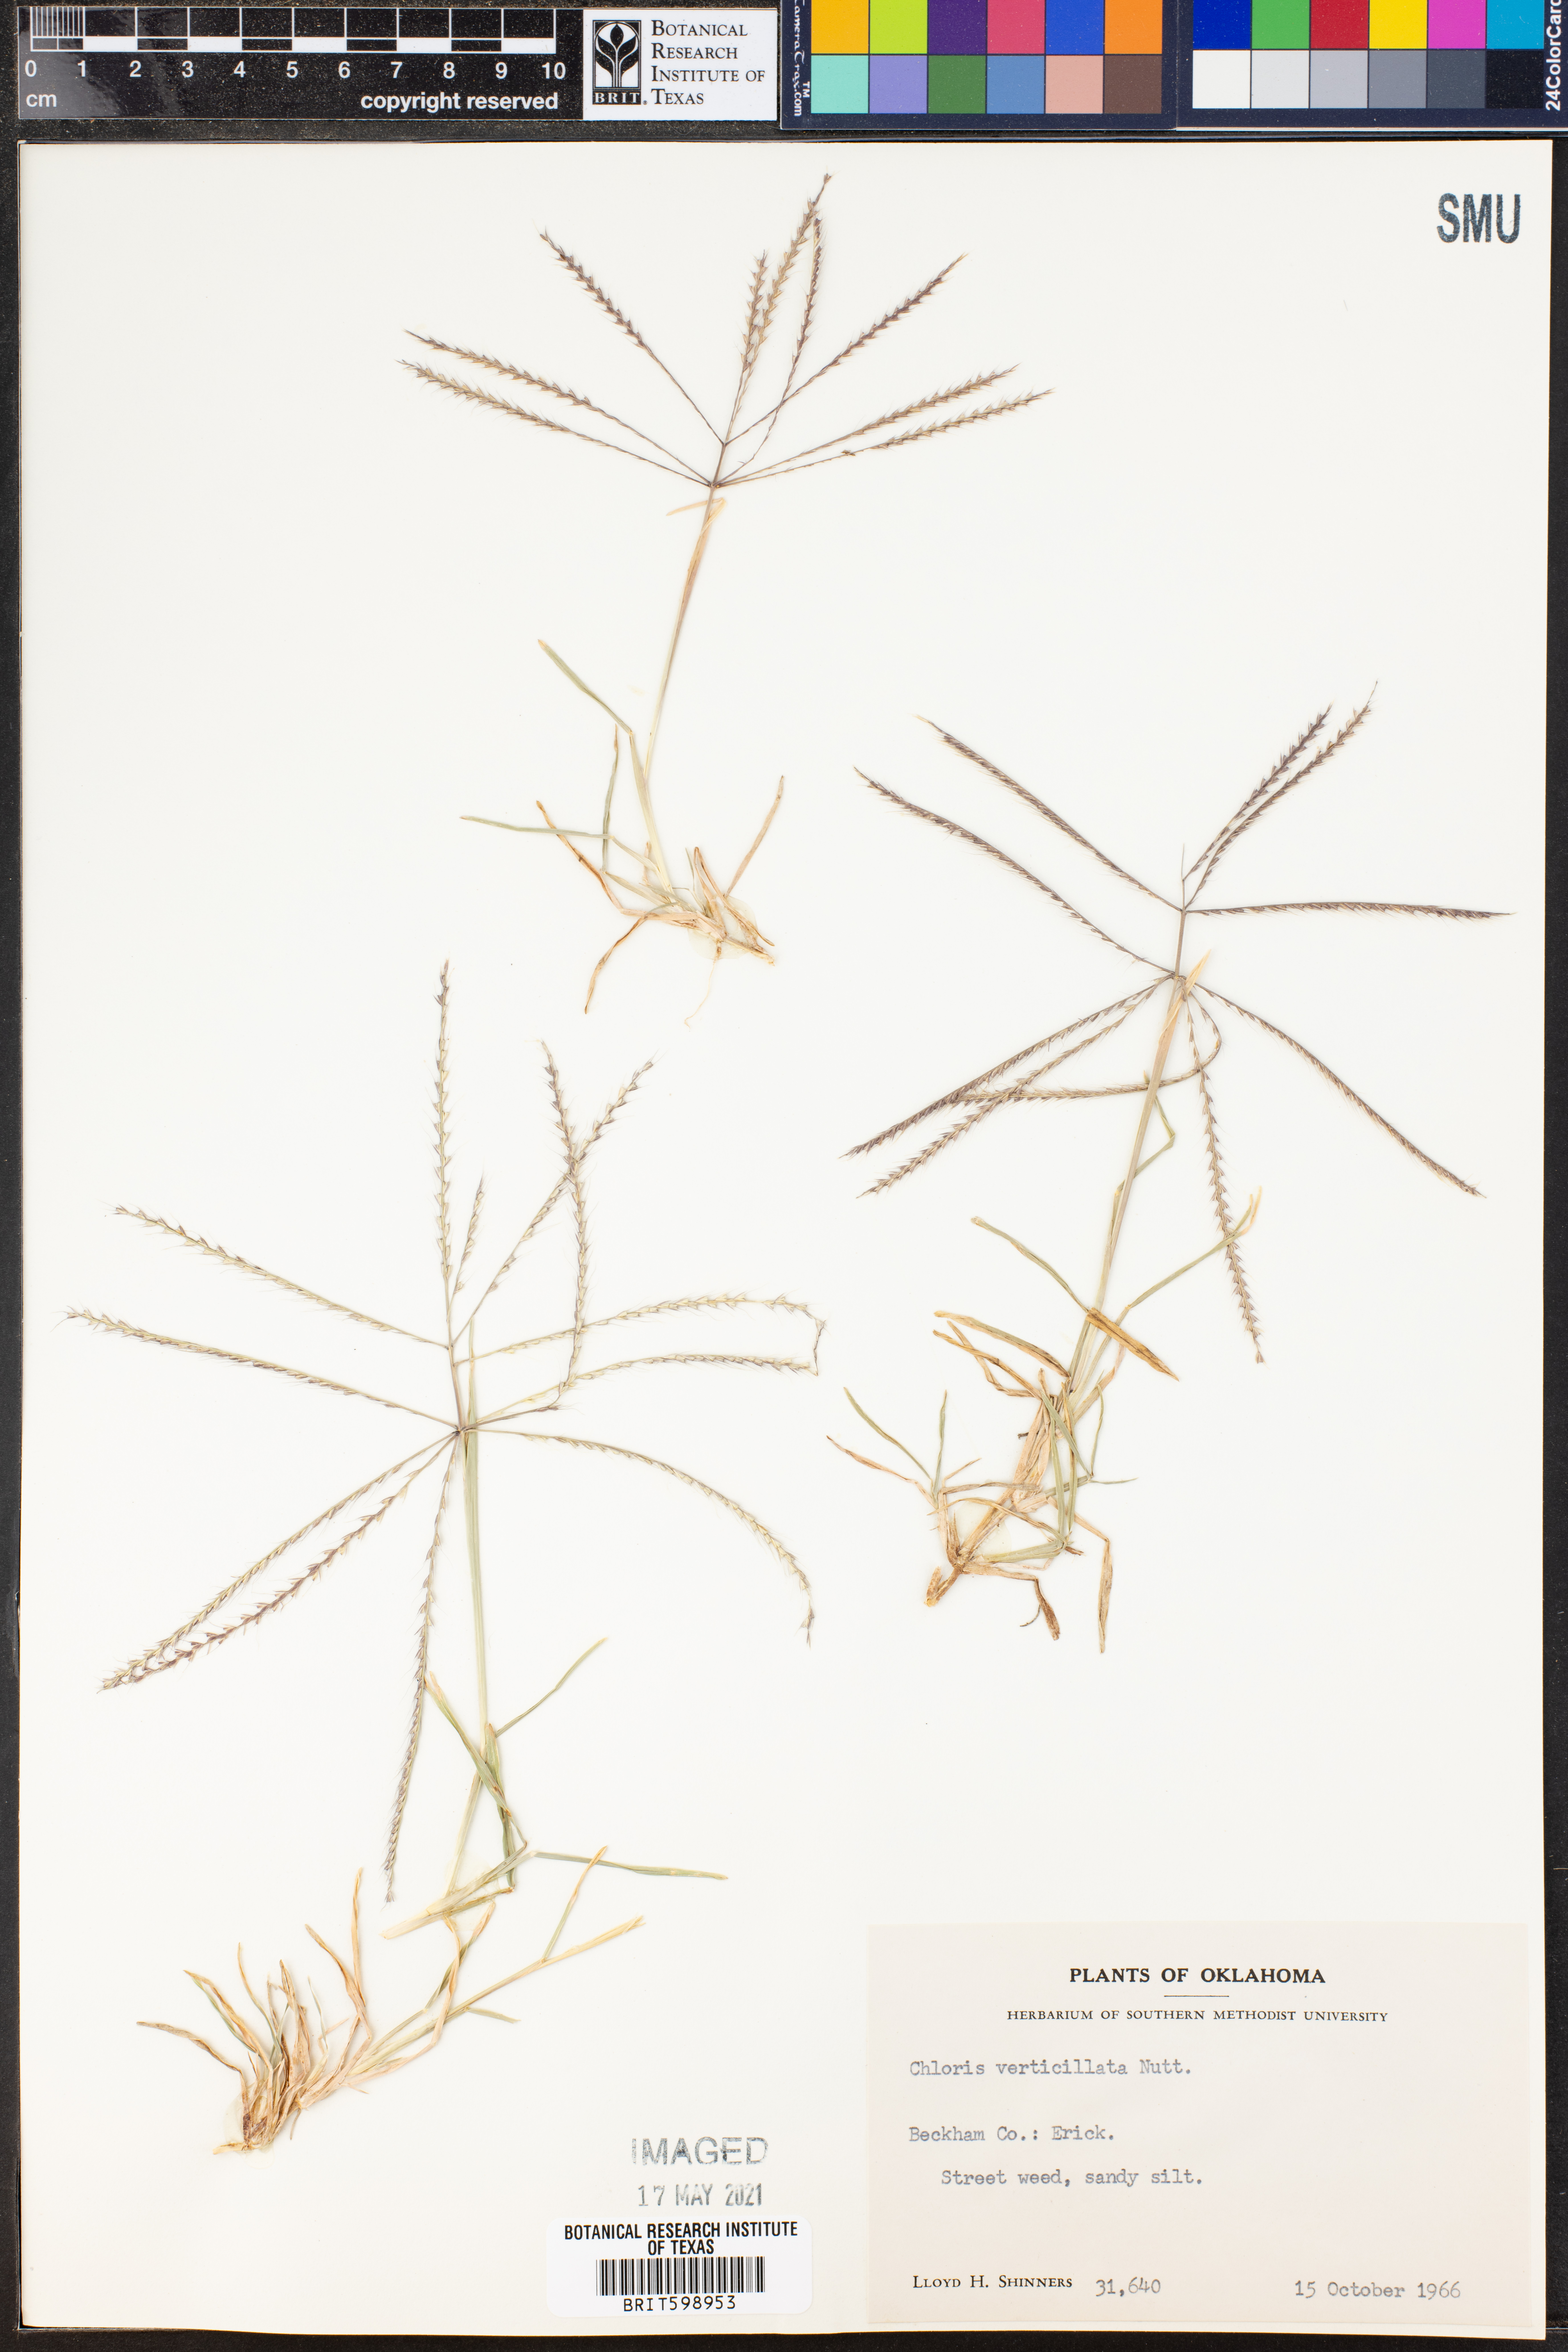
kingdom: Plantae
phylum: Tracheophyta
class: Liliopsida
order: Poales
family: Poaceae
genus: Chloris
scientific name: Chloris verticillata
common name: Tumble windmill grass
